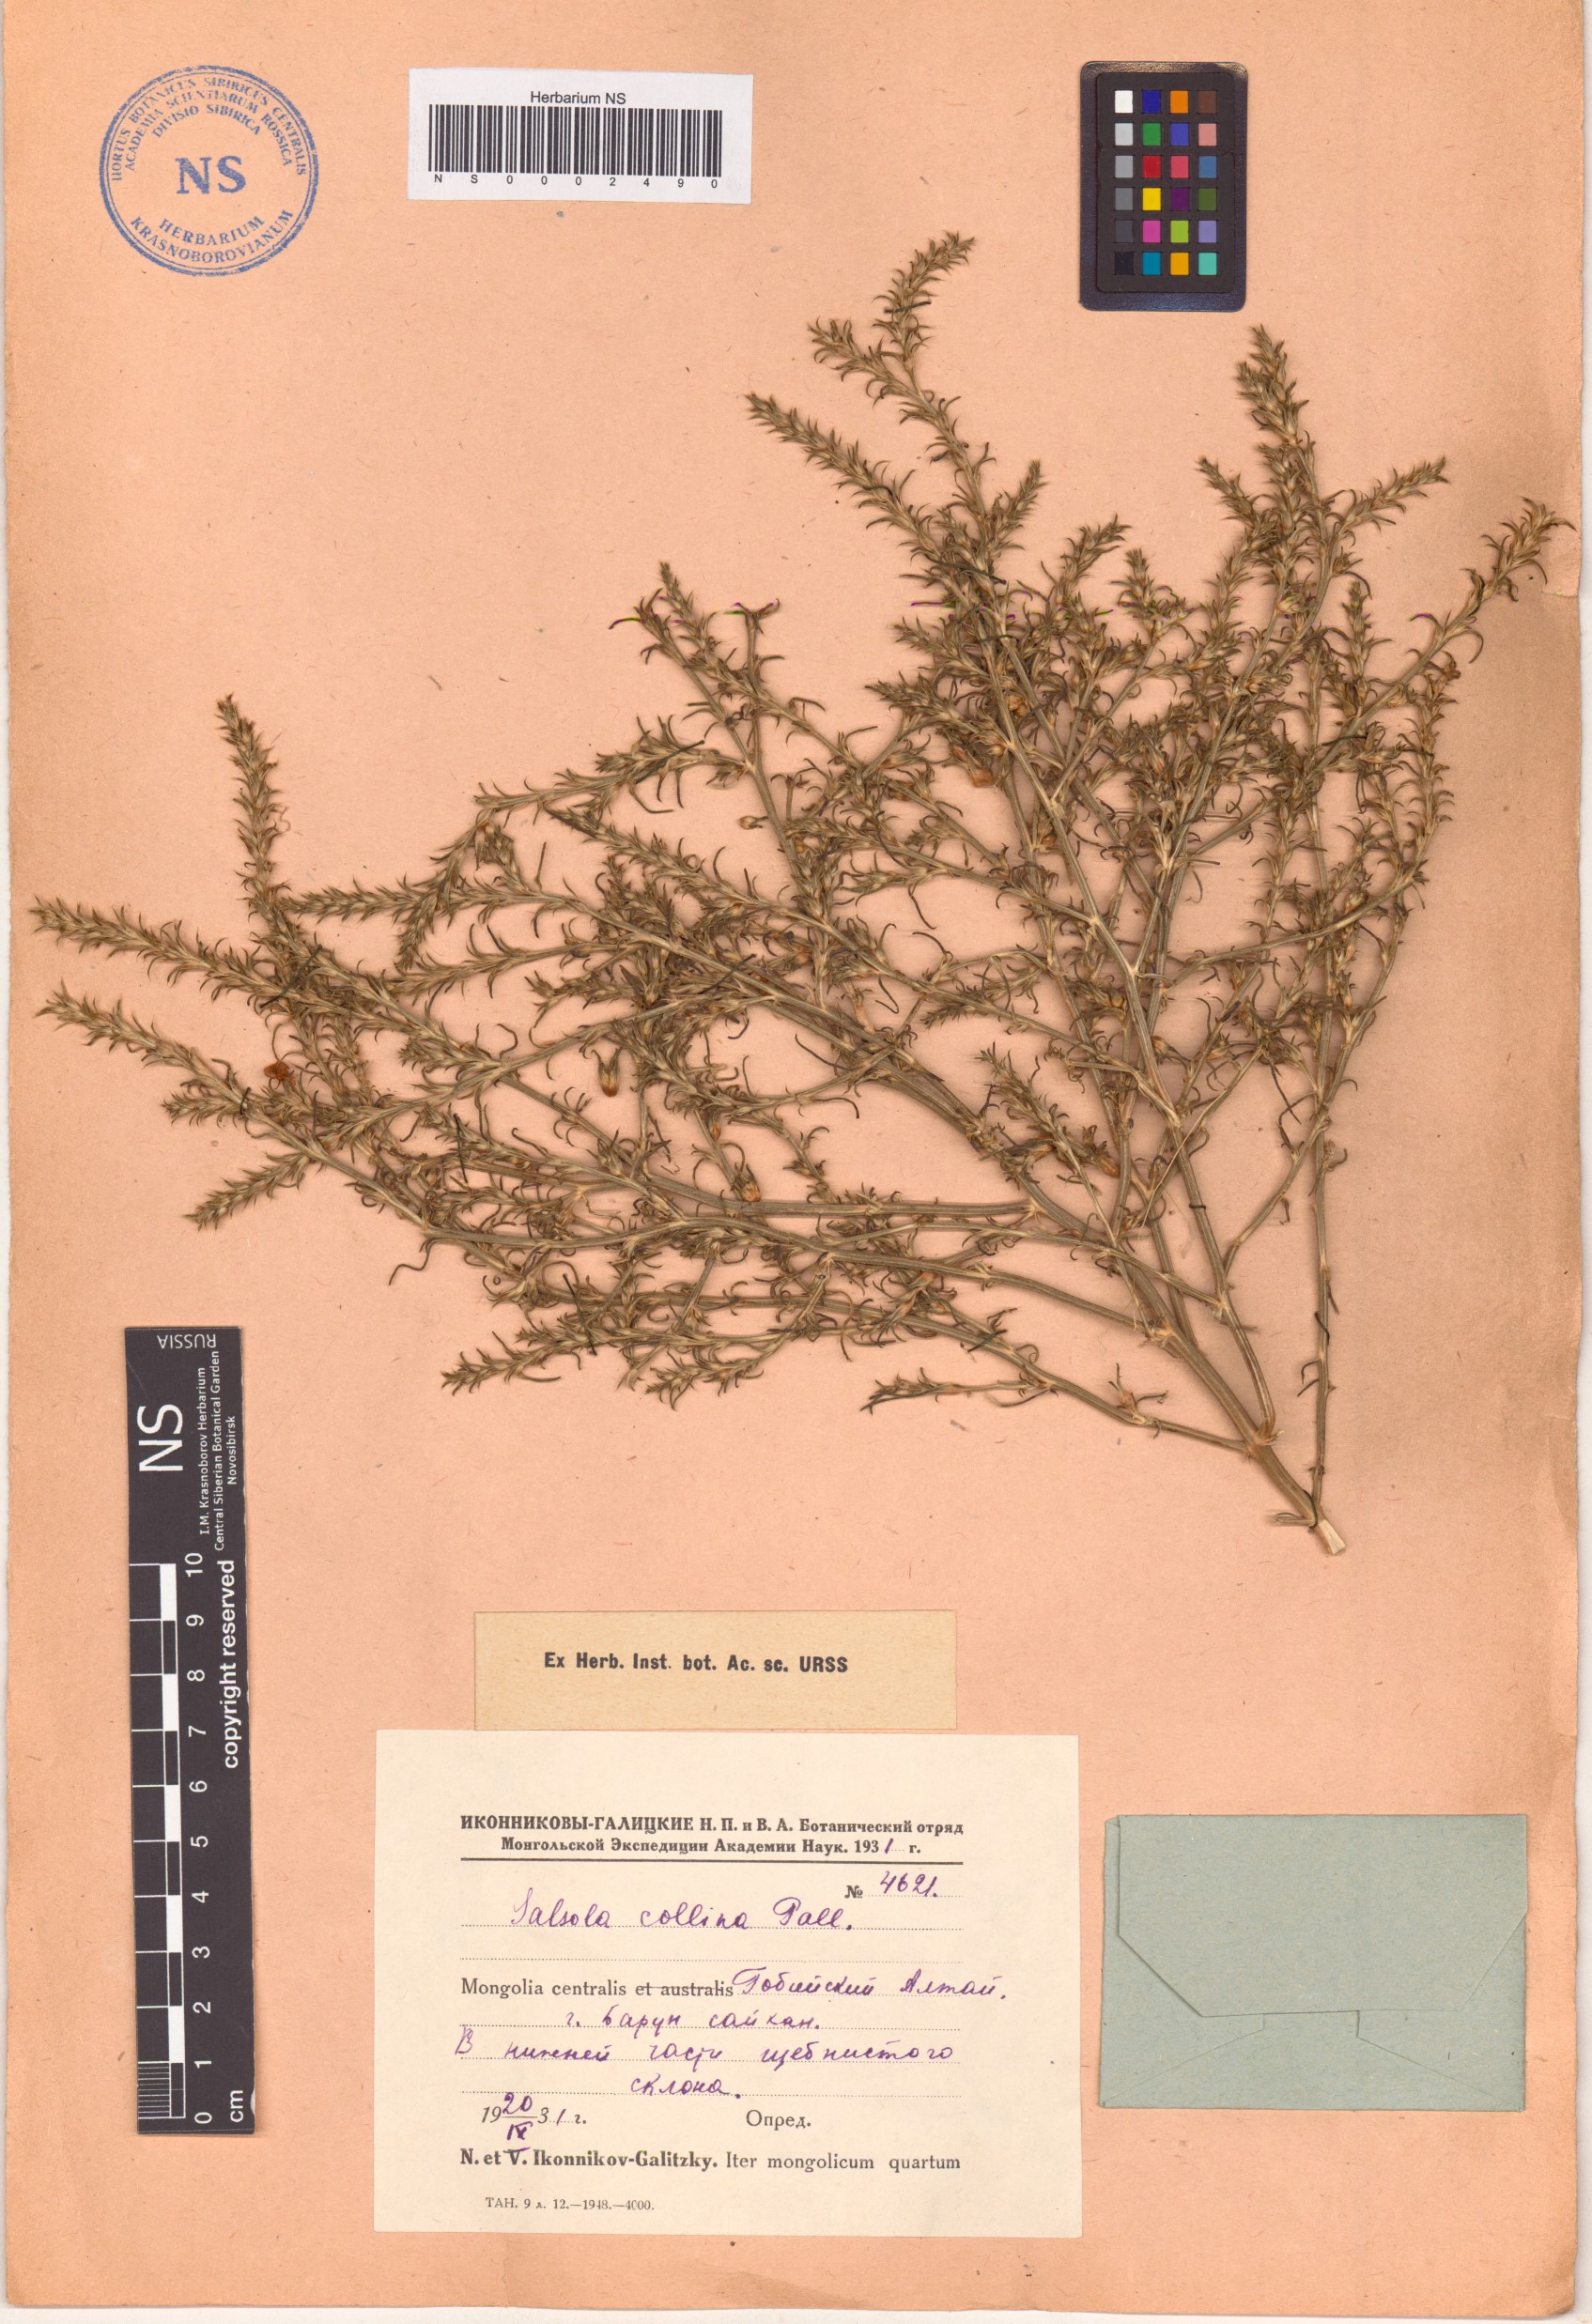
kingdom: Plantae
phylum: Tracheophyta
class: Magnoliopsida
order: Caryophyllales
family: Amaranthaceae
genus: Salsola
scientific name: Salsola collina
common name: Tumbleweed
